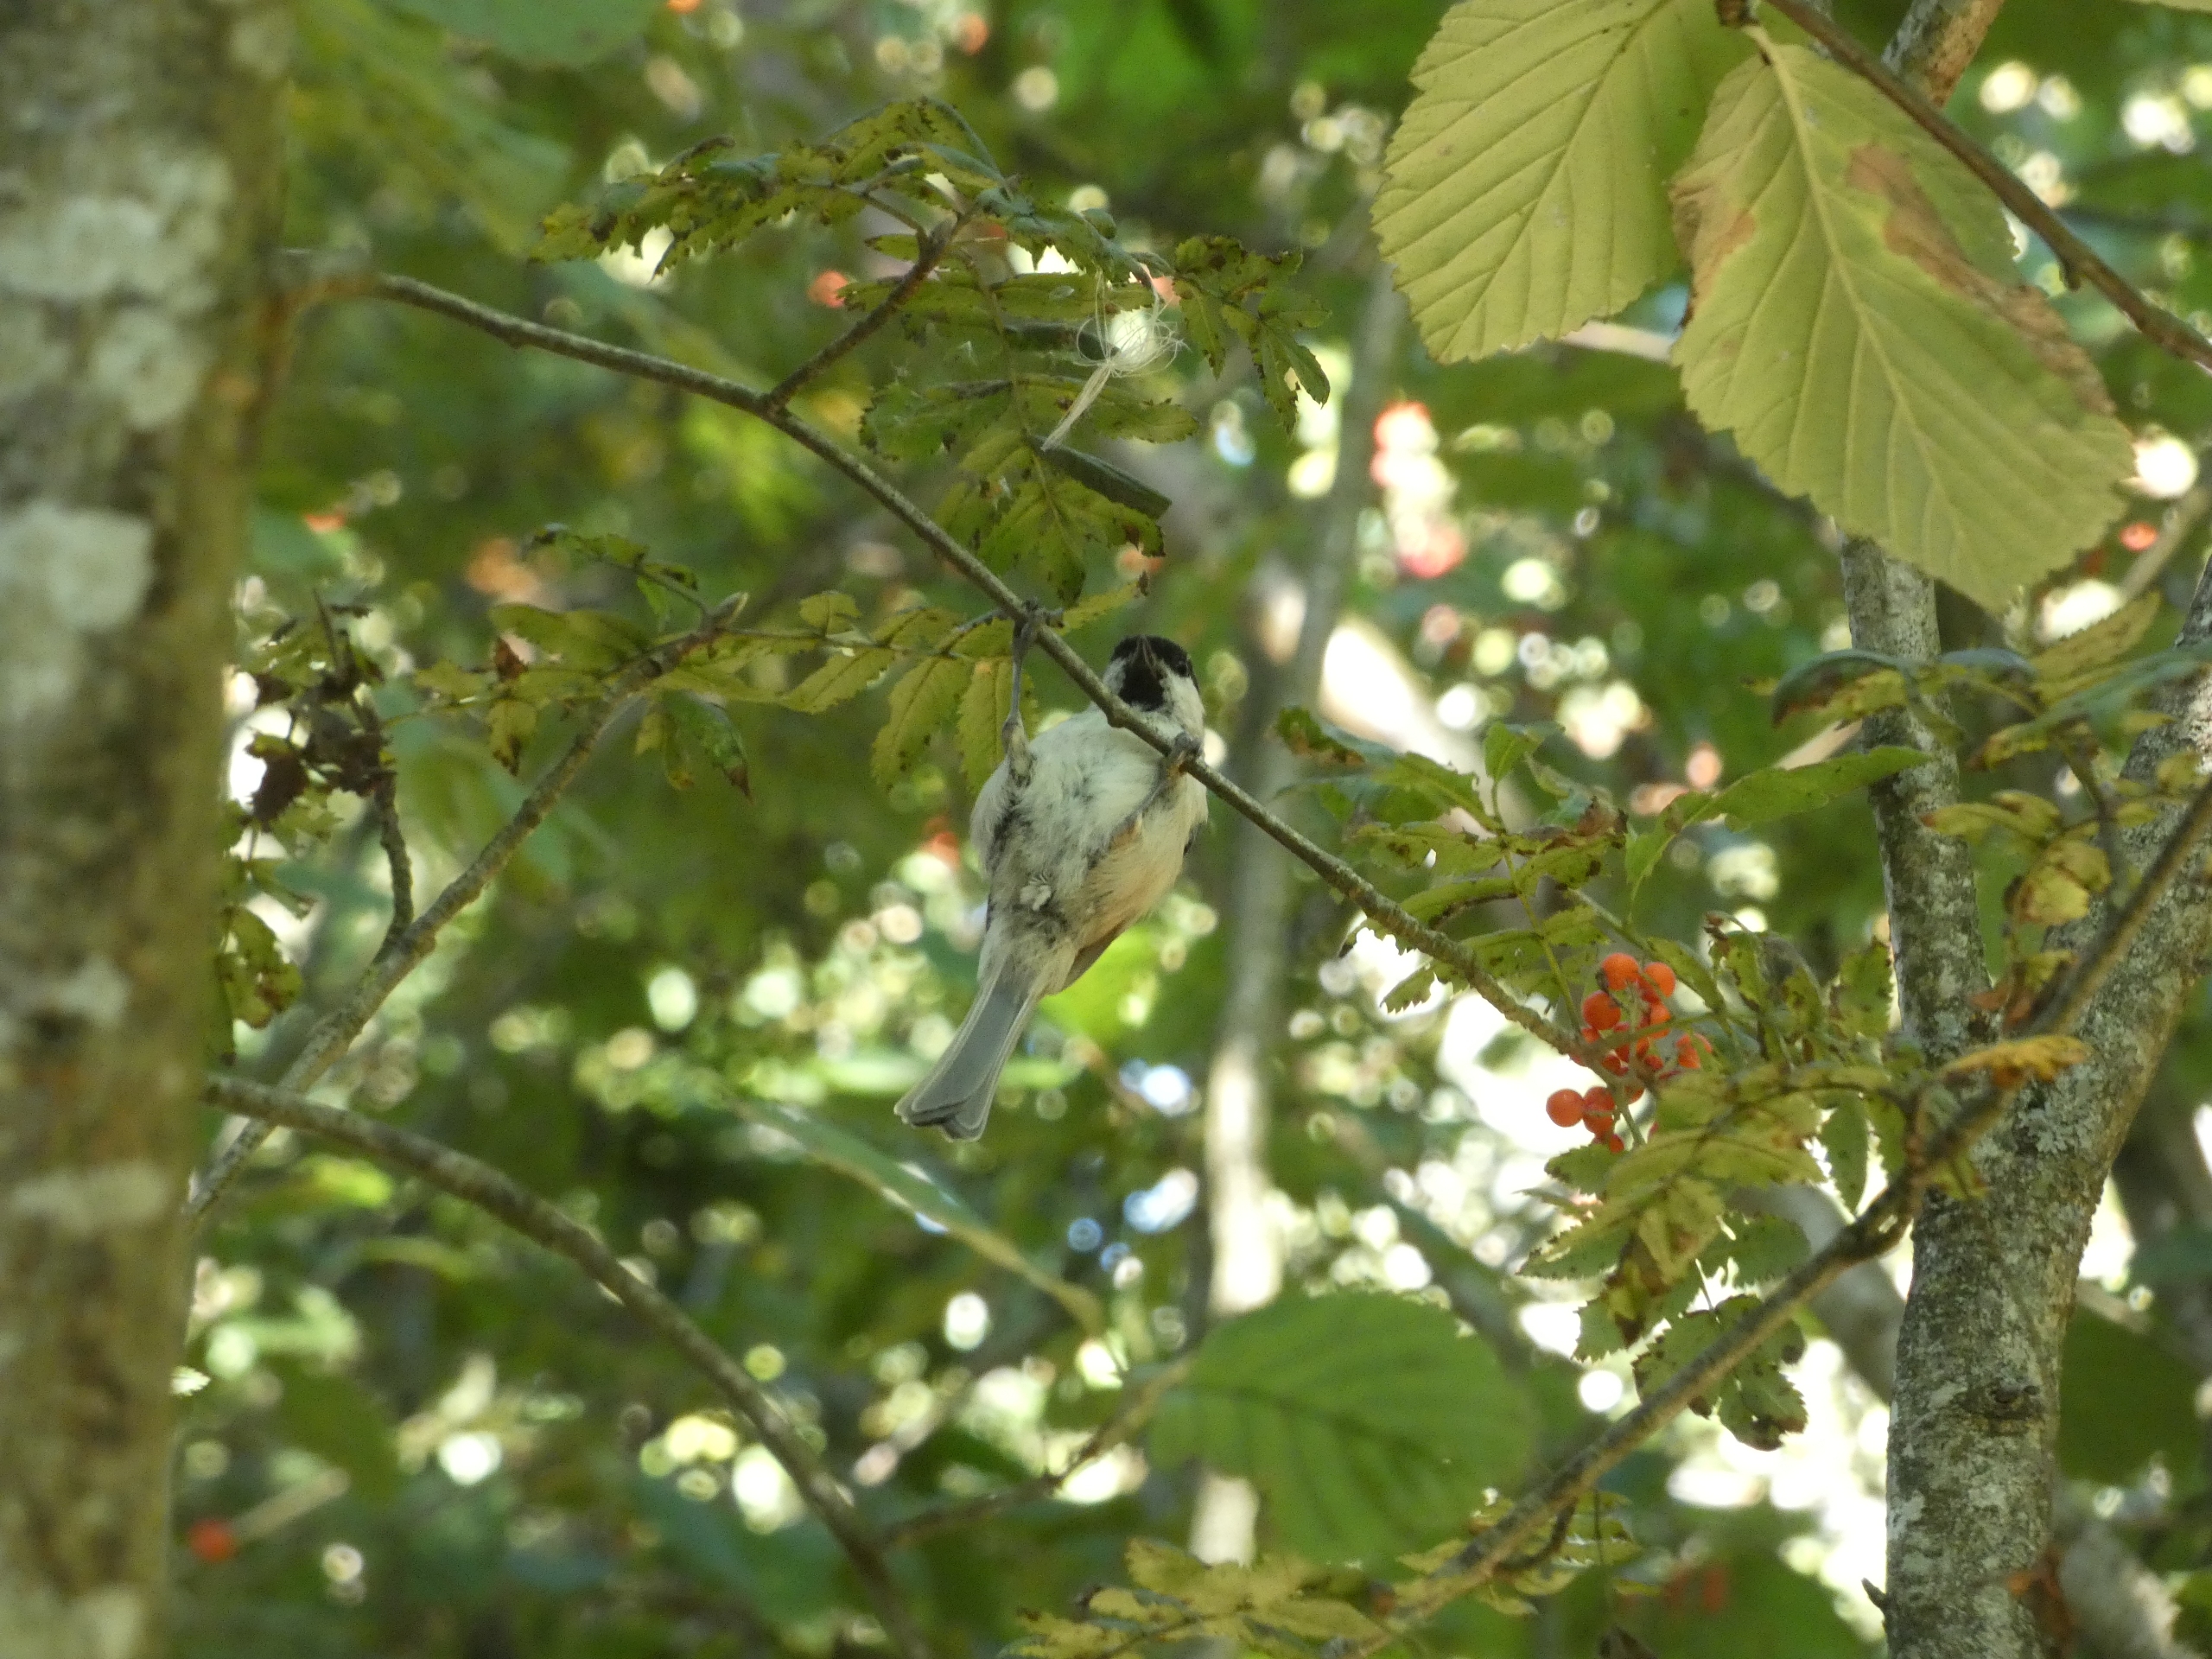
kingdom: Animalia
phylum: Chordata
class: Aves
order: Passeriformes
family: Paridae
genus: Poecile
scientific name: Poecile palustris
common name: Sumpmejse
